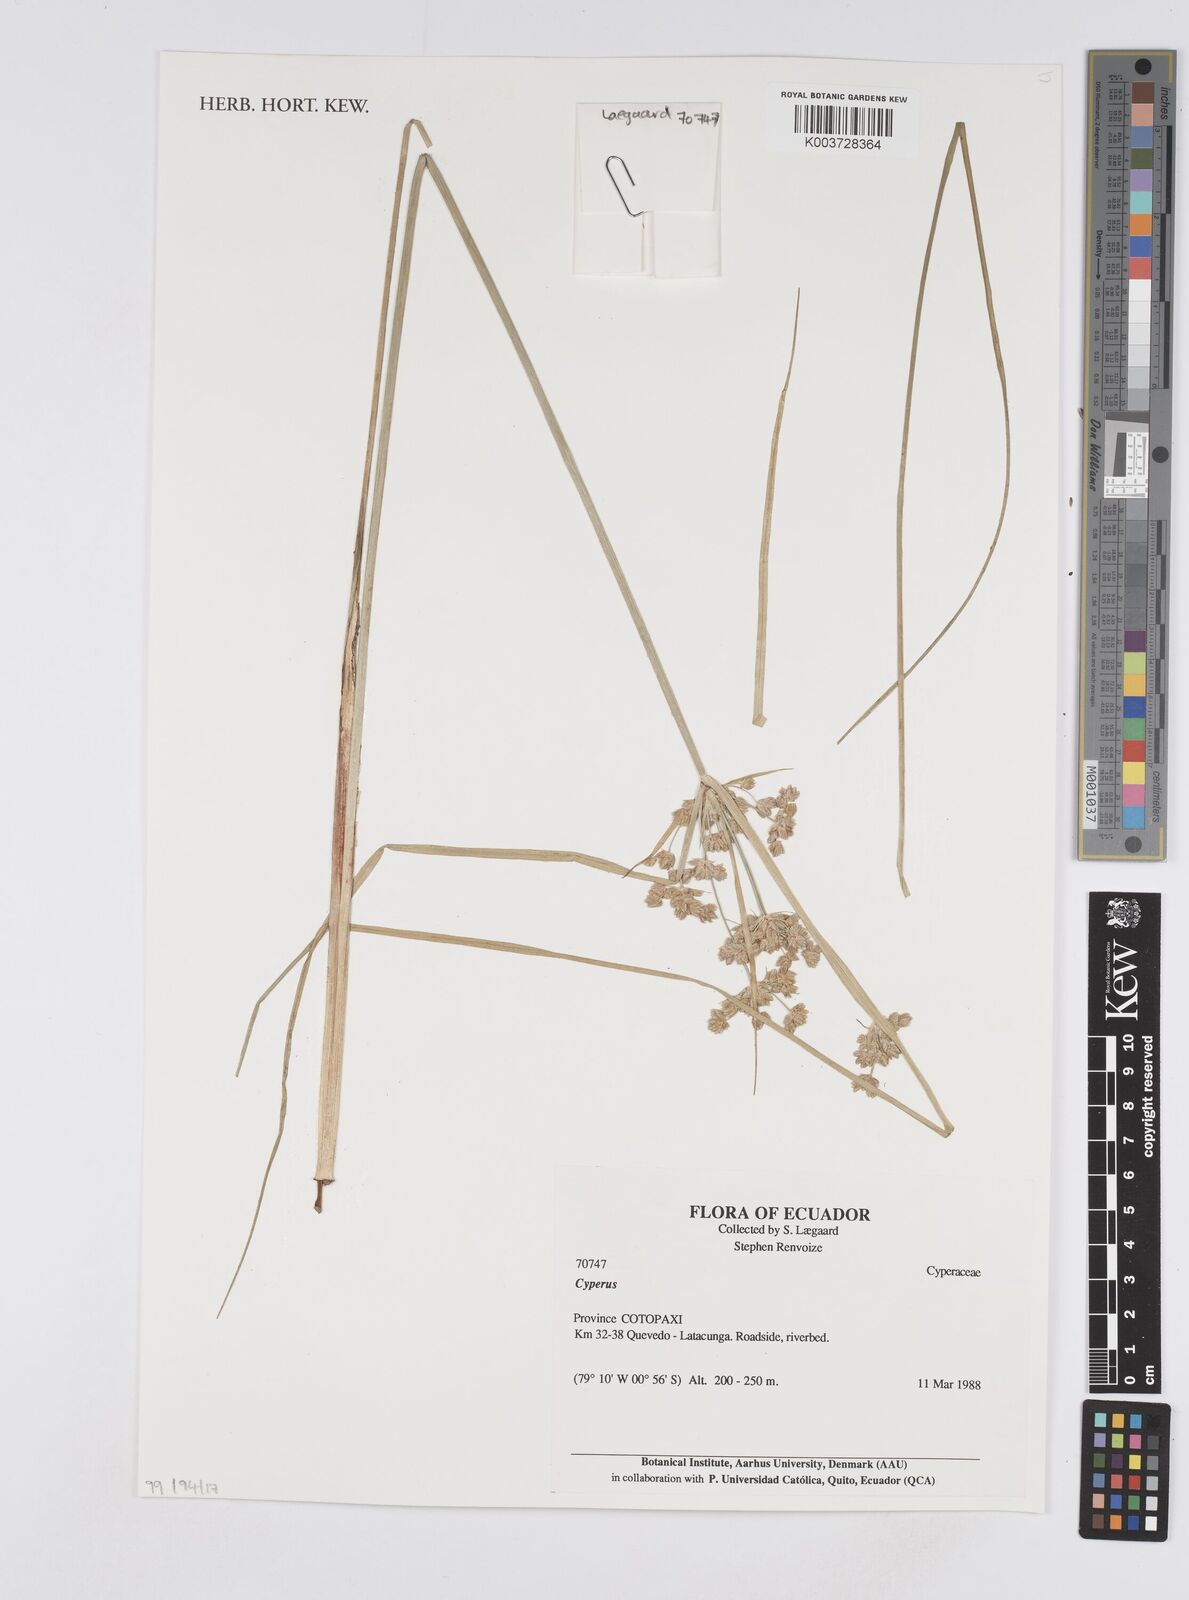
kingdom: Plantae
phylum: Tracheophyta
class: Liliopsida
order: Poales
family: Cyperaceae
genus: Cyperus
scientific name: Cyperus
